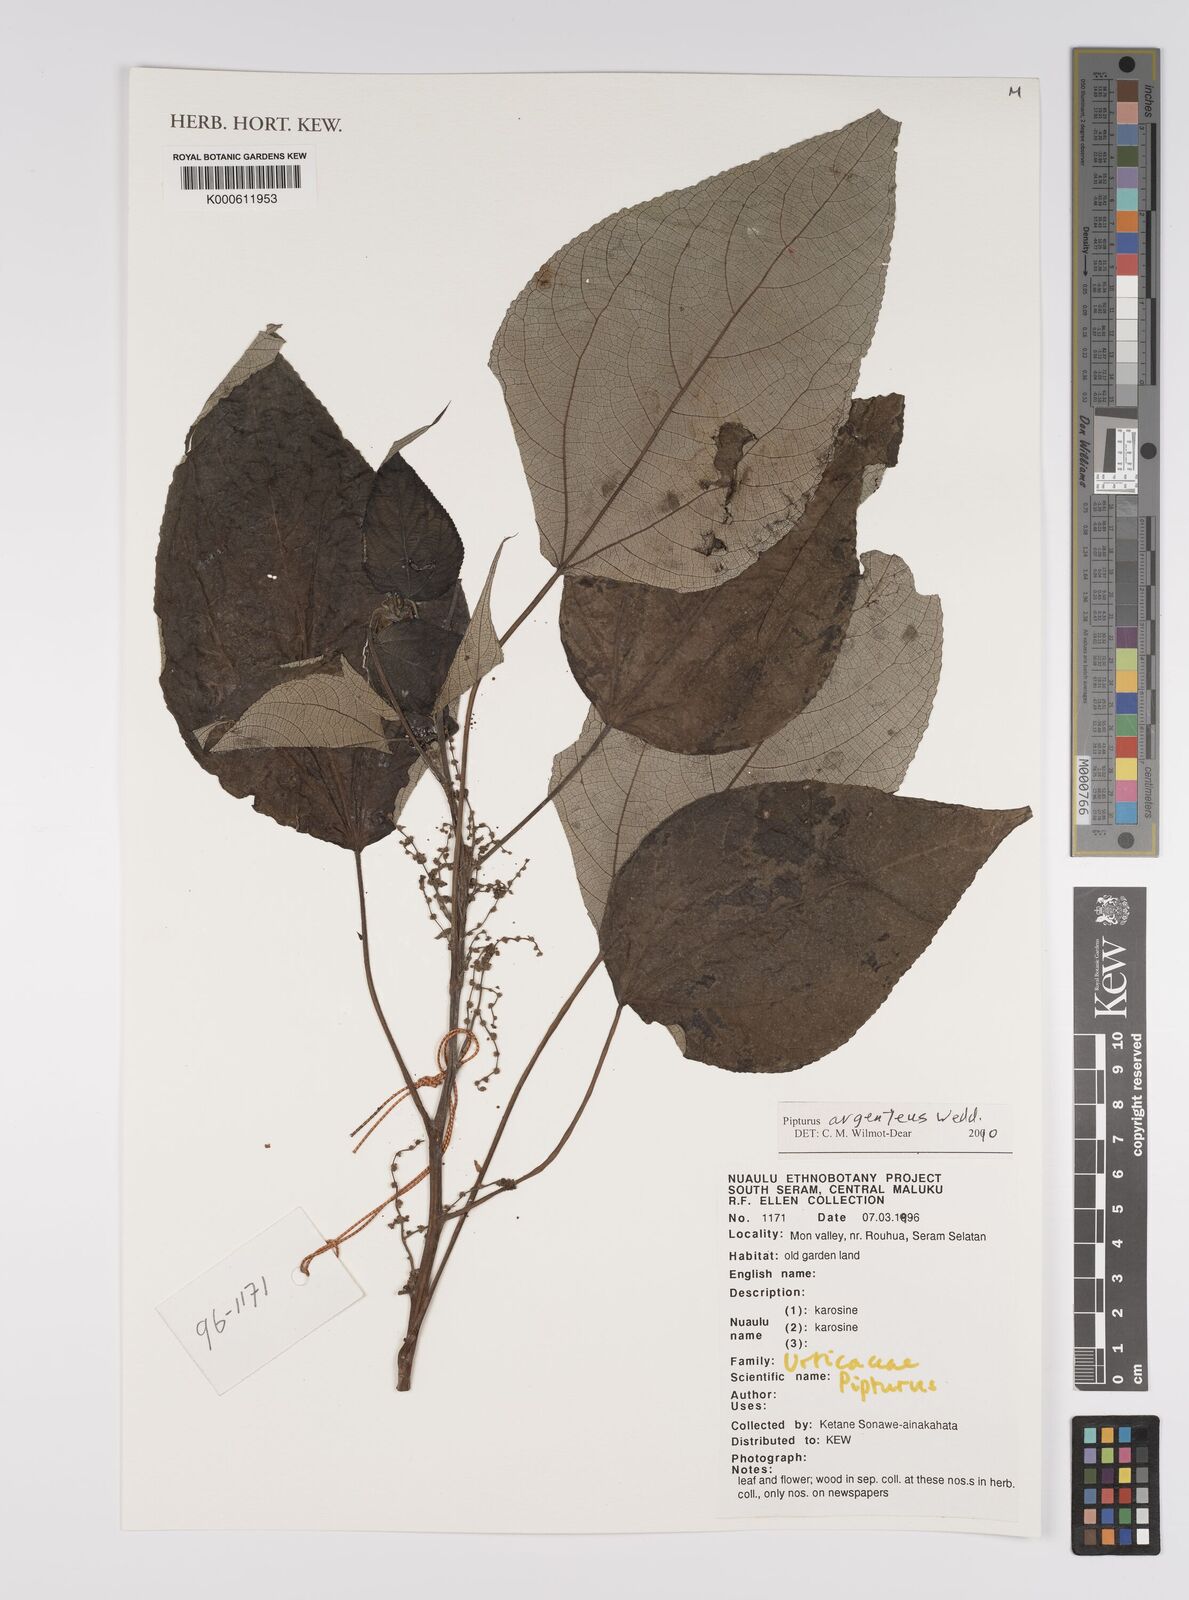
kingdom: Plantae
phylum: Tracheophyta
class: Magnoliopsida
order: Rosales
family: Urticaceae
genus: Pipturus
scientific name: Pipturus argenteus
